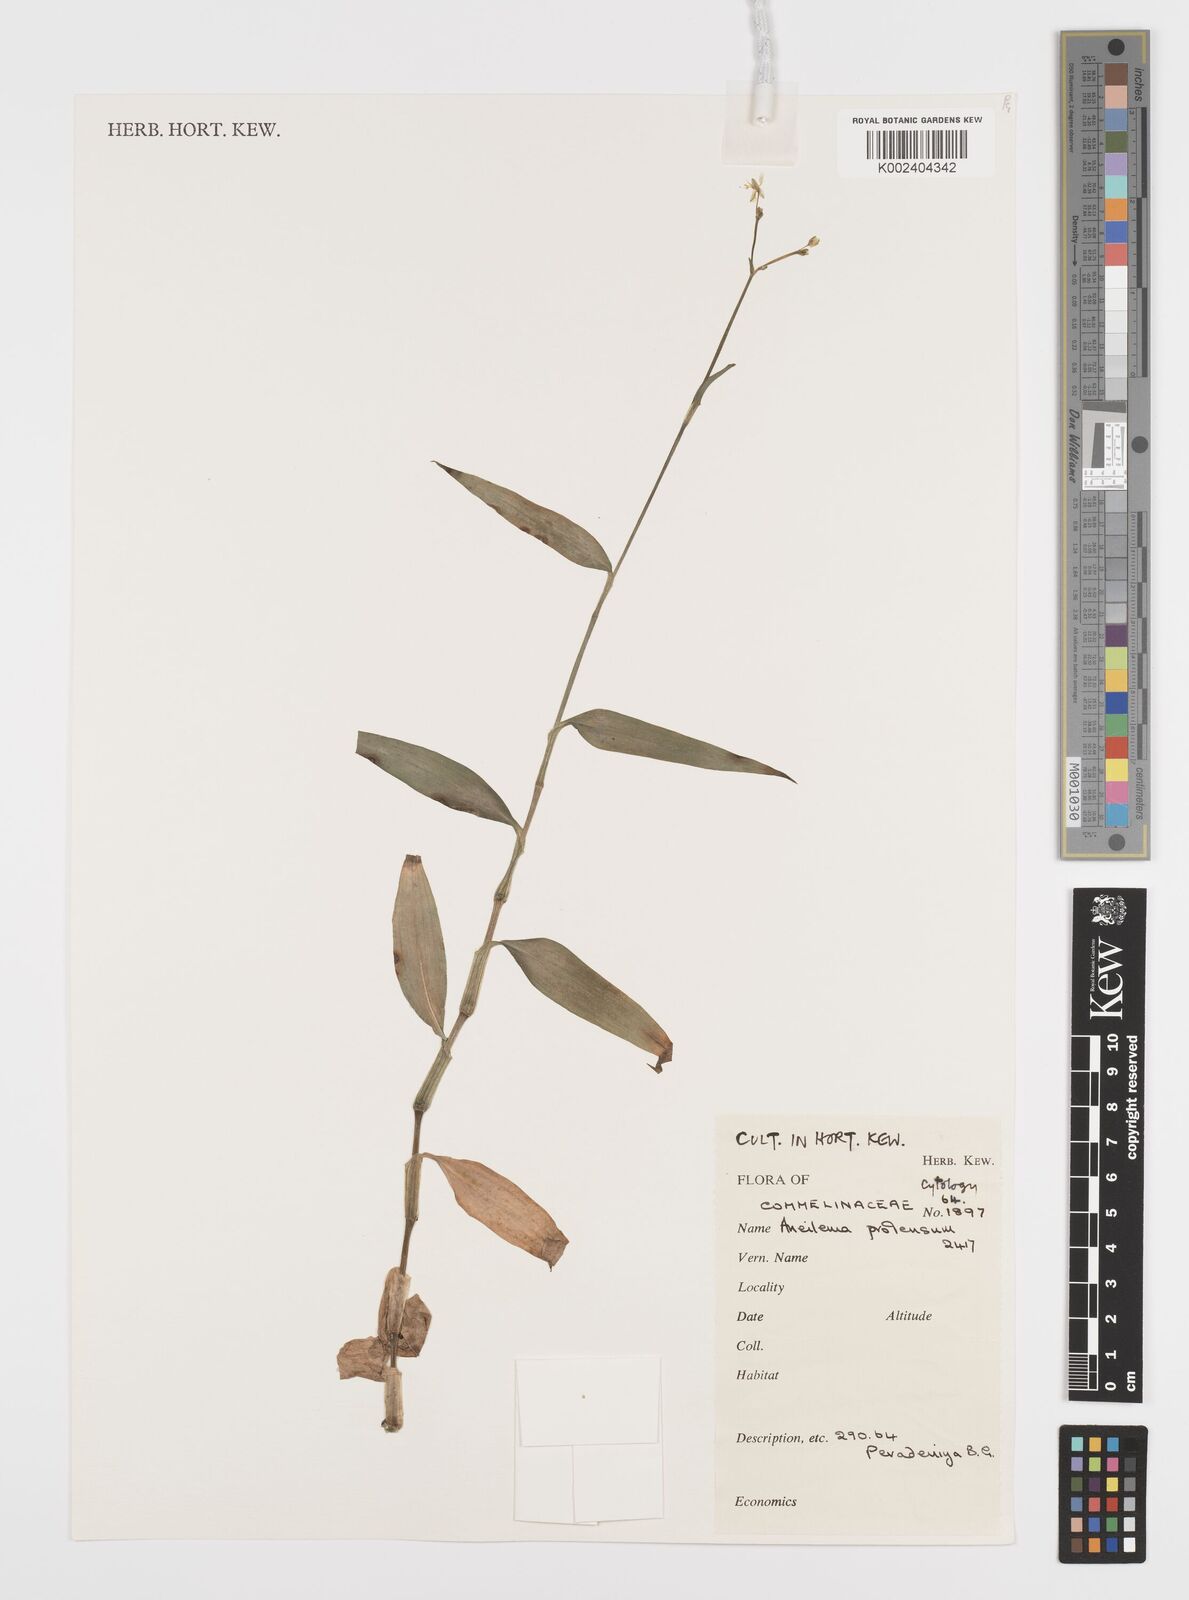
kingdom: Plantae
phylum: Tracheophyta
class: Liliopsida
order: Commelinales
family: Commelinaceae
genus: Rhopalephora
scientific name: Rhopalephora scaberrima
